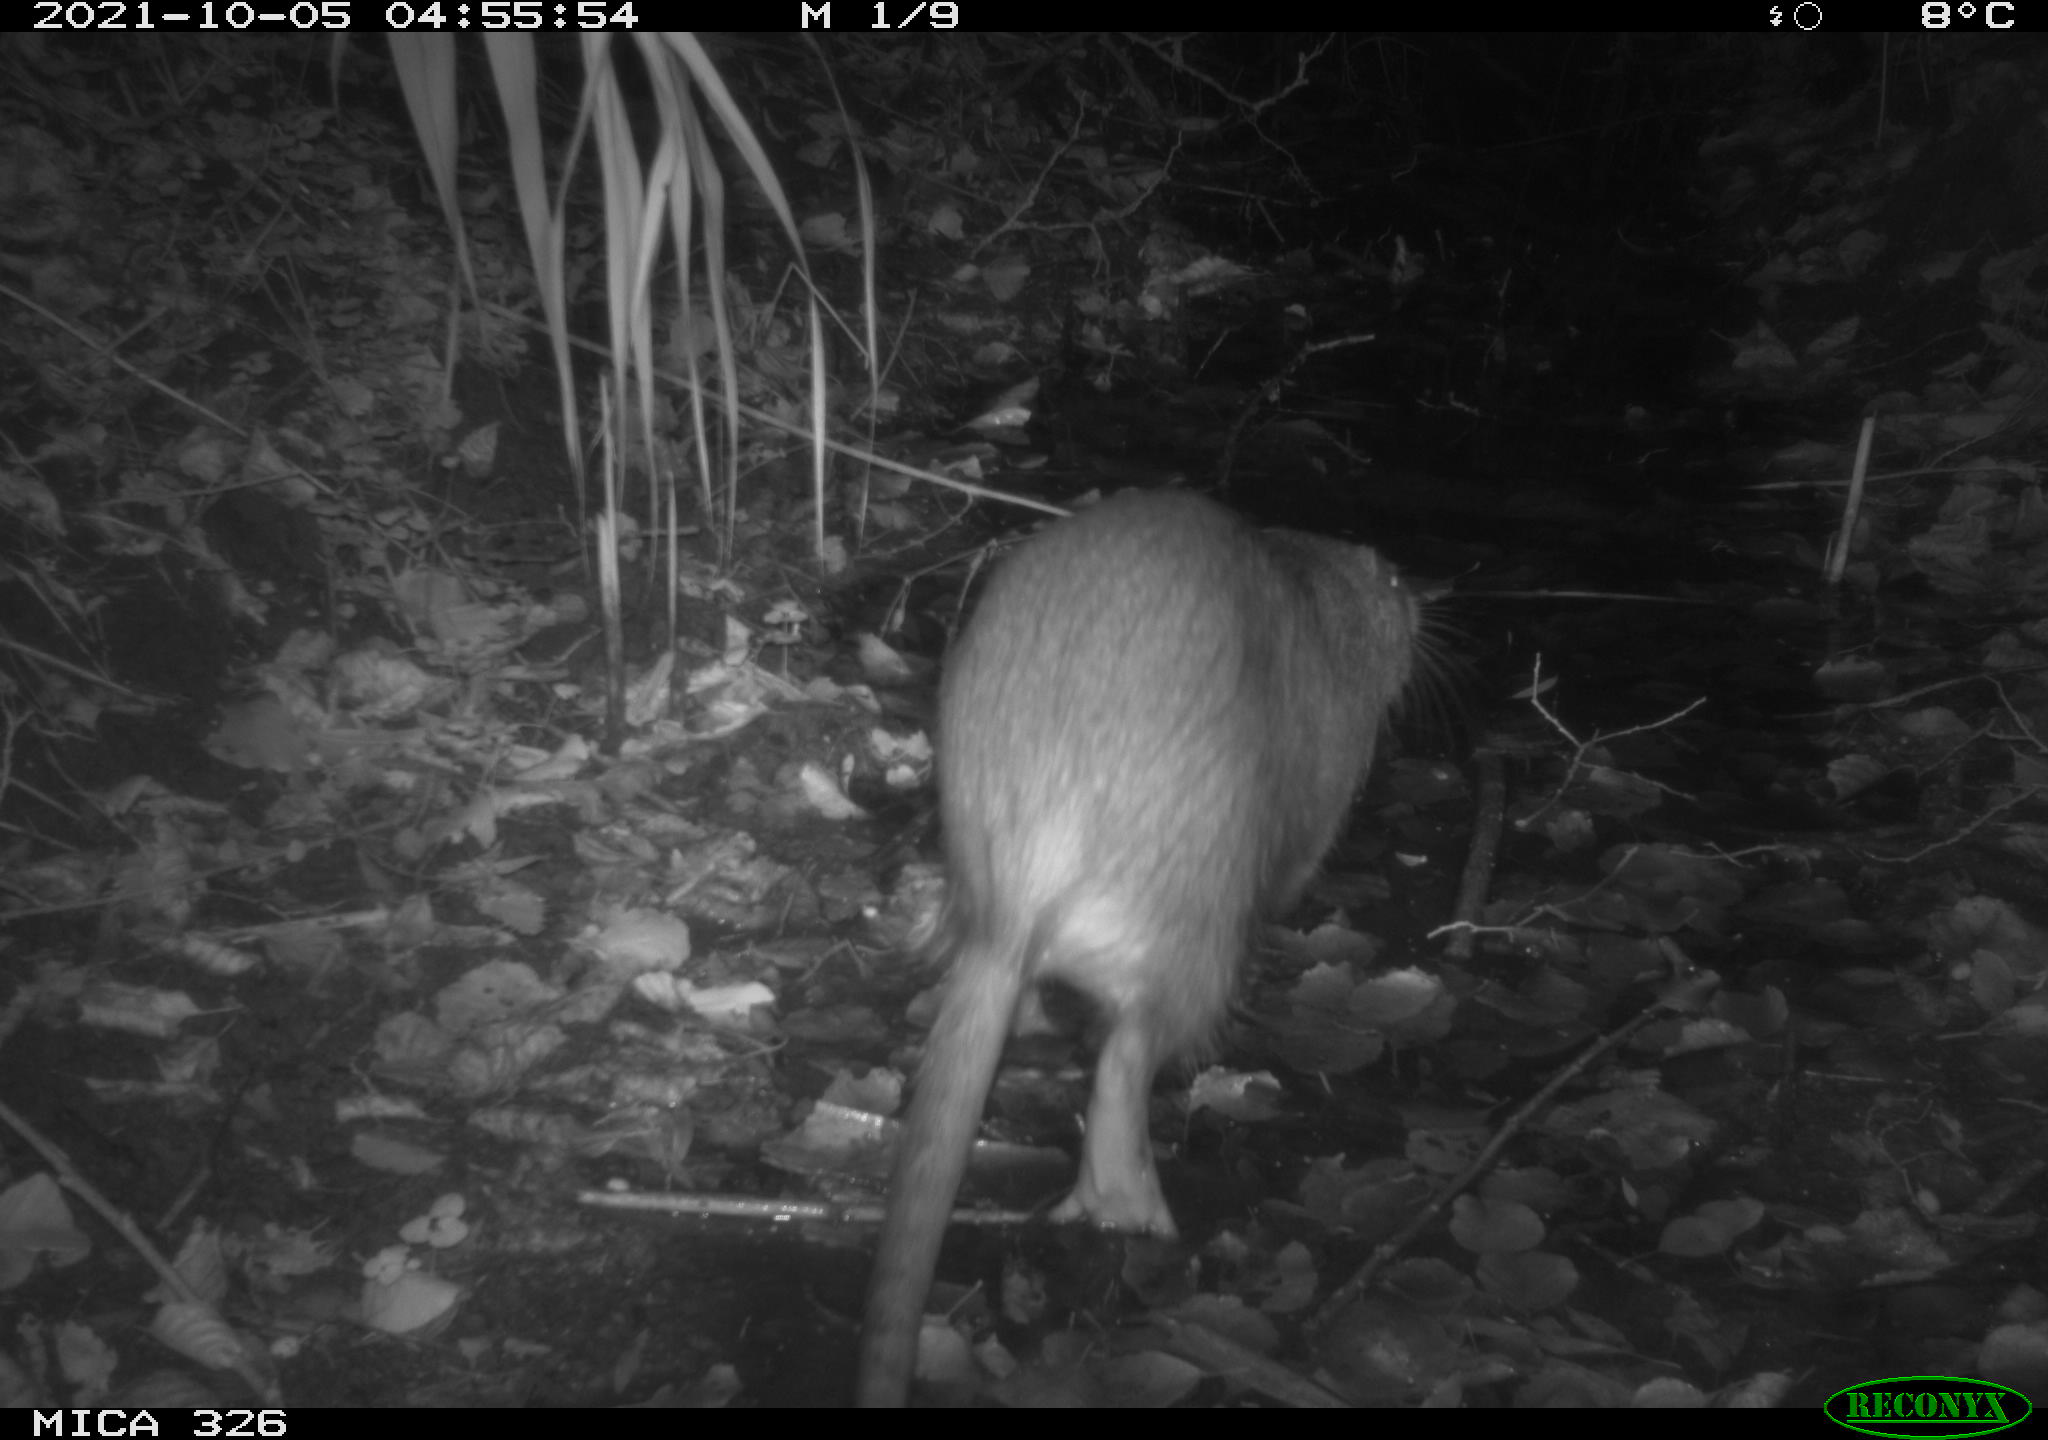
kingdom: Animalia
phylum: Chordata
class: Mammalia
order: Rodentia
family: Myocastoridae
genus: Myocastor
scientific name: Myocastor coypus
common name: Coypu
